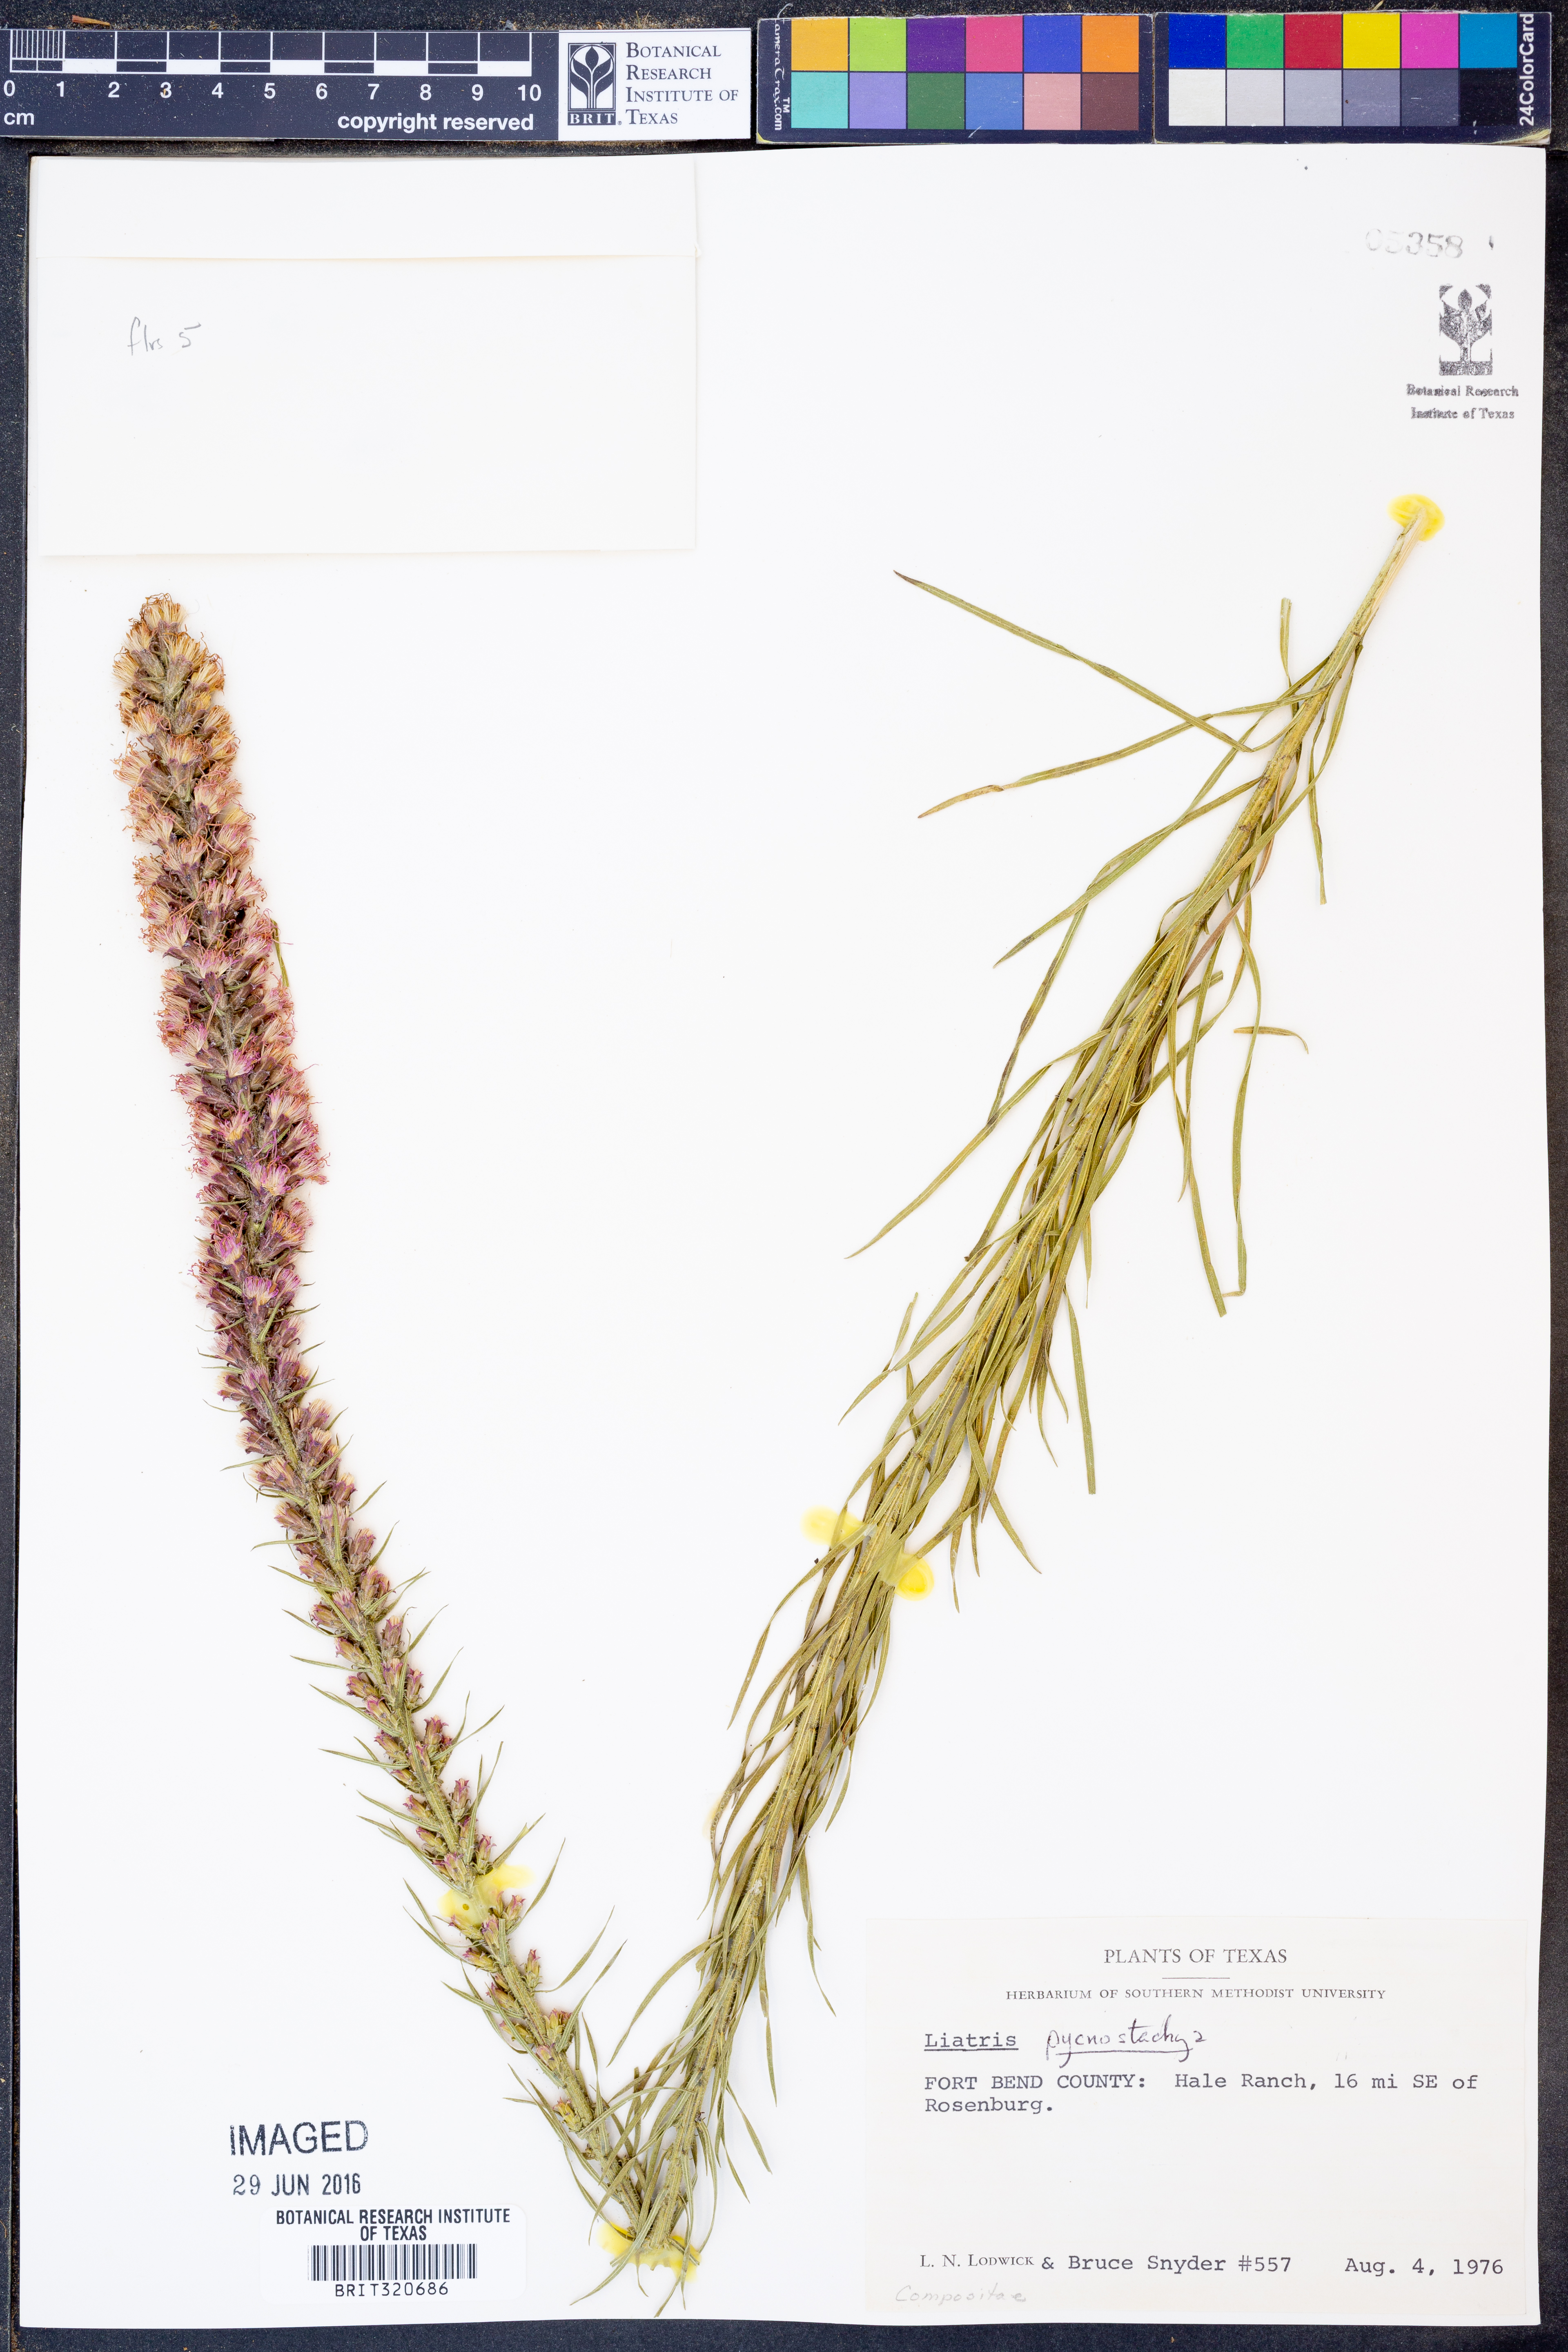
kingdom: Plantae
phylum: Tracheophyta
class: Magnoliopsida
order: Asterales
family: Asteraceae
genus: Liatris
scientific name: Liatris pycnostachya
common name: Cattail gayfeather
